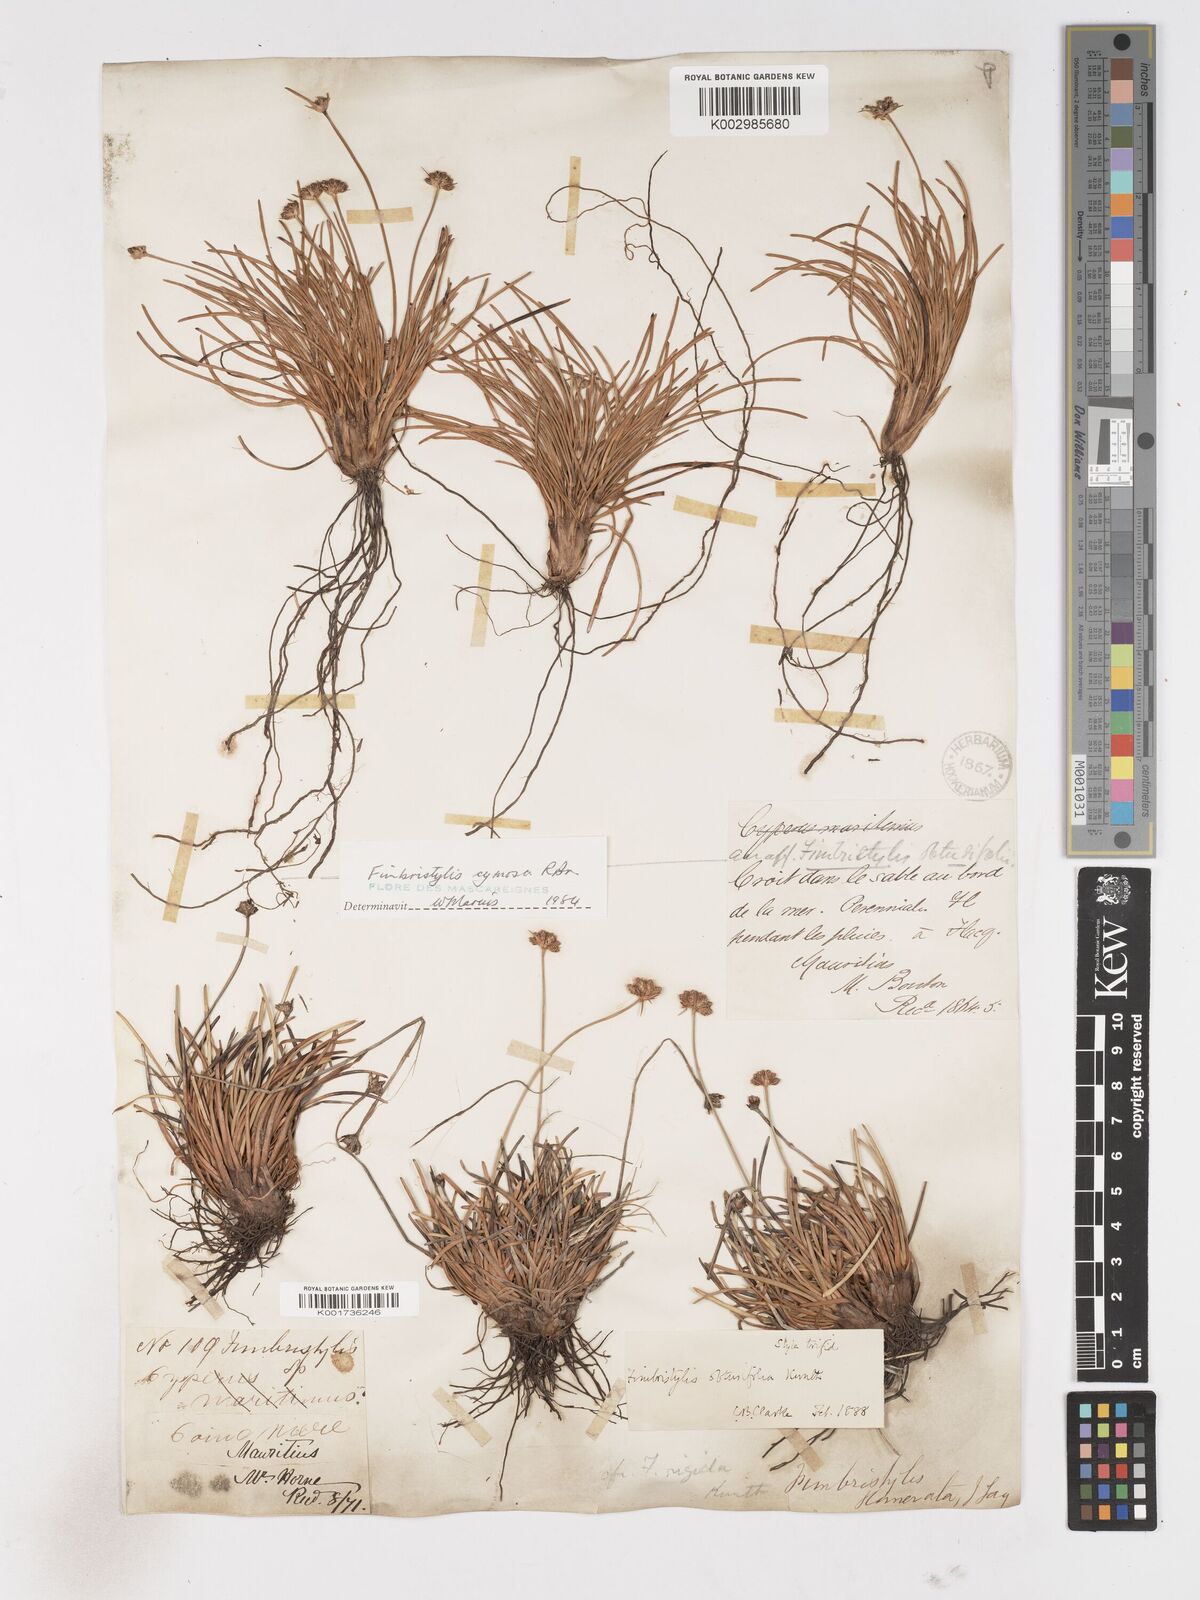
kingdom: Plantae
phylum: Tracheophyta
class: Liliopsida
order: Poales
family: Cyperaceae
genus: Fimbristylis
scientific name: Fimbristylis cymosa
